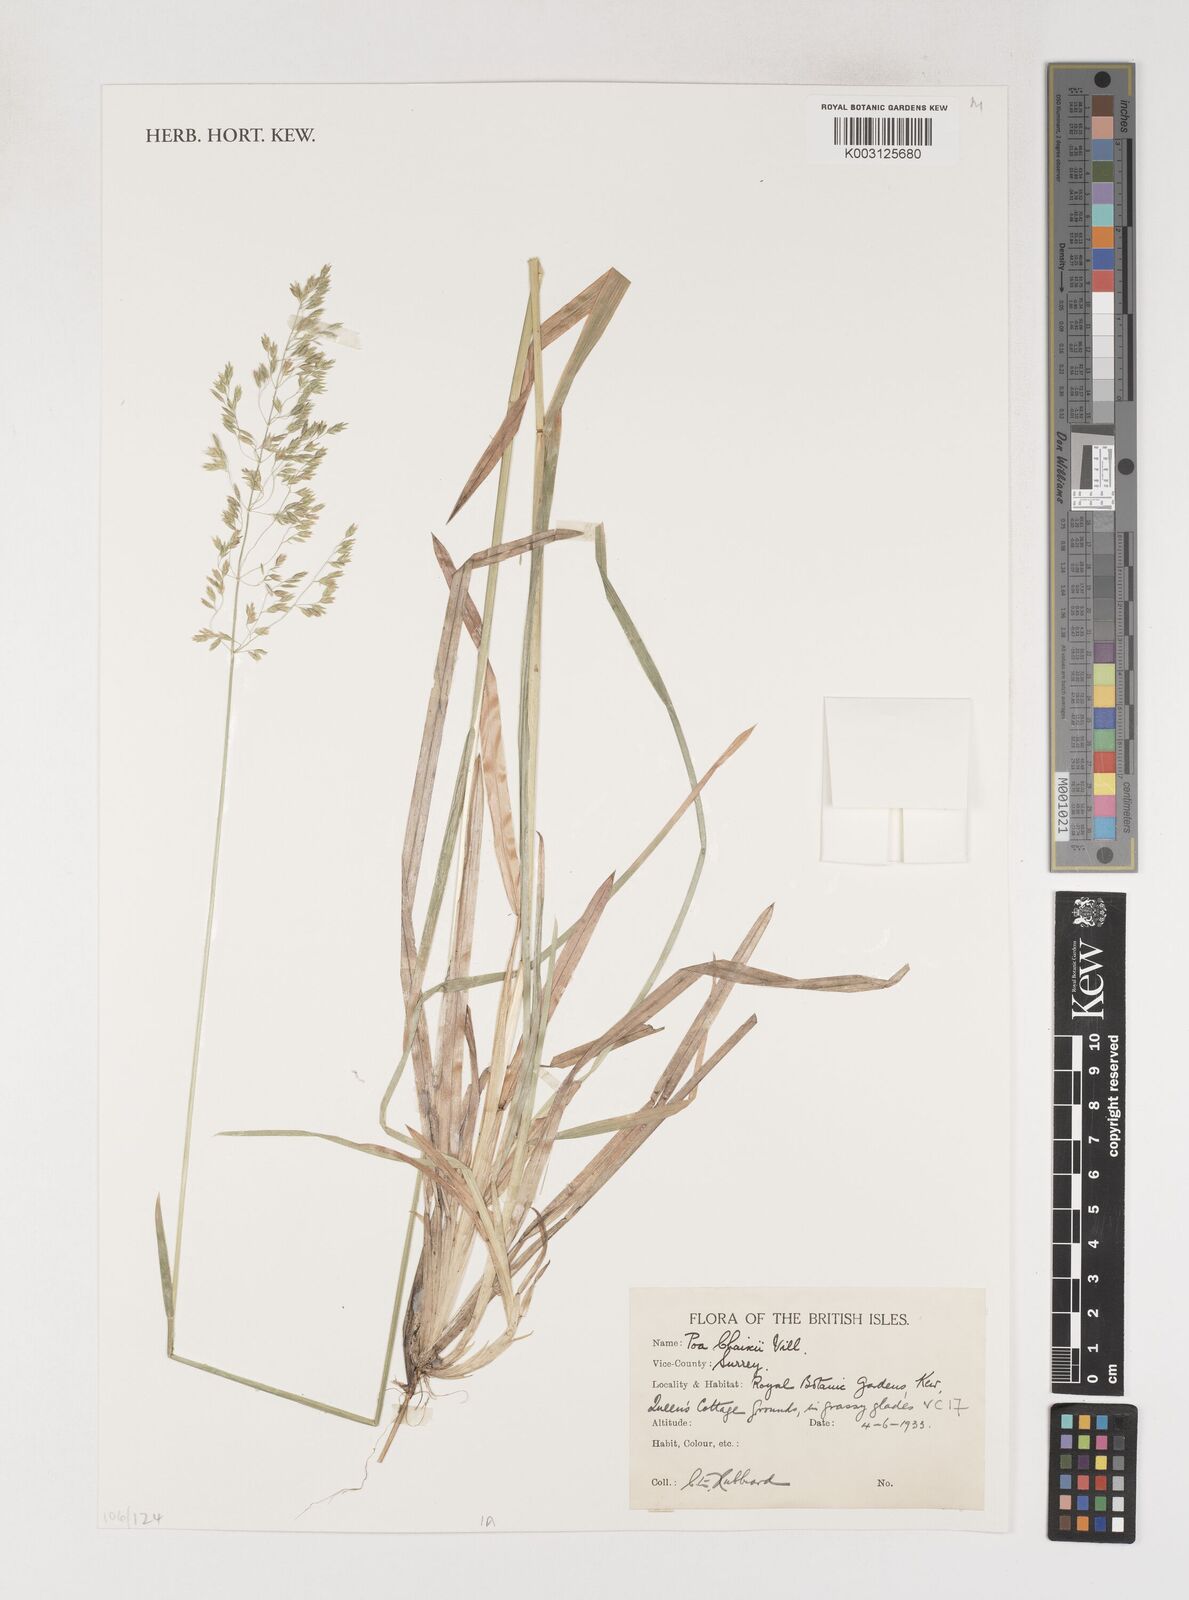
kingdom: Plantae
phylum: Tracheophyta
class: Liliopsida
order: Poales
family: Poaceae
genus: Poa
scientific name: Poa chaixii
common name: Broad-leaved meadow-grass
